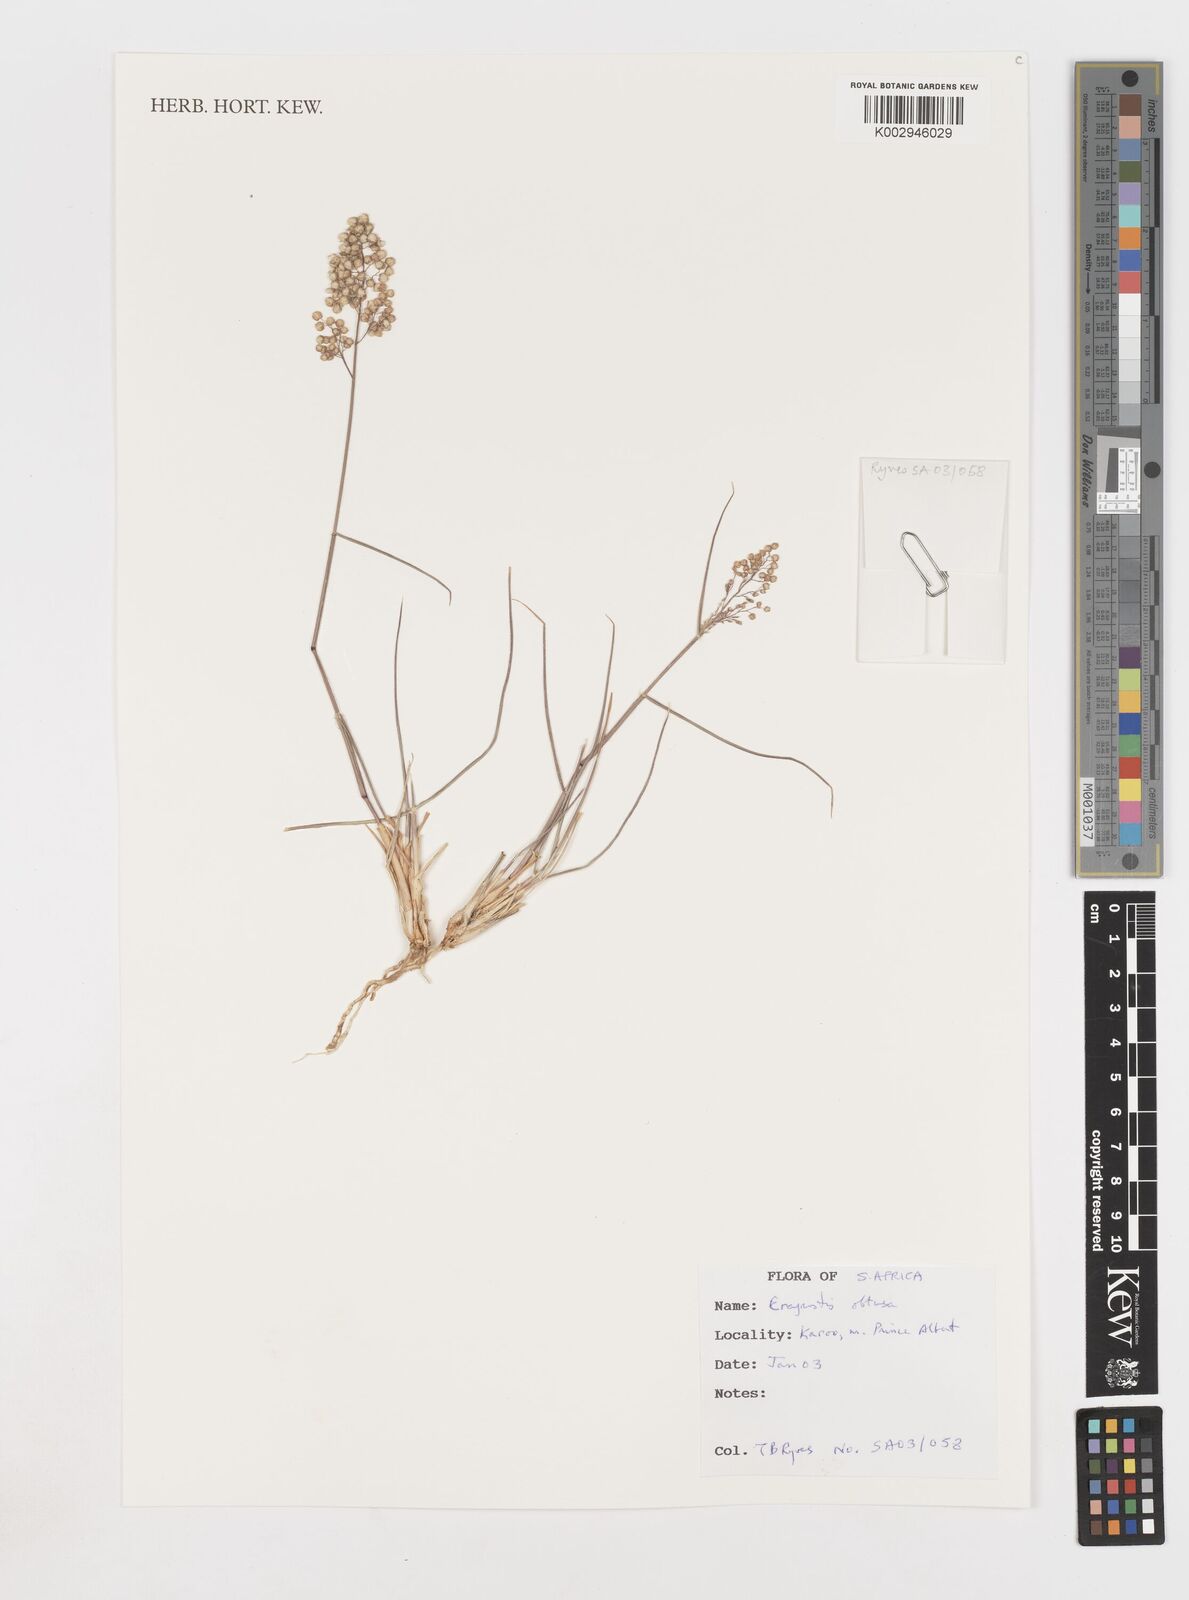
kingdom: Plantae
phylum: Tracheophyta
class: Liliopsida
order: Poales
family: Poaceae
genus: Eragrostis
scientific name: Eragrostis obtusa
